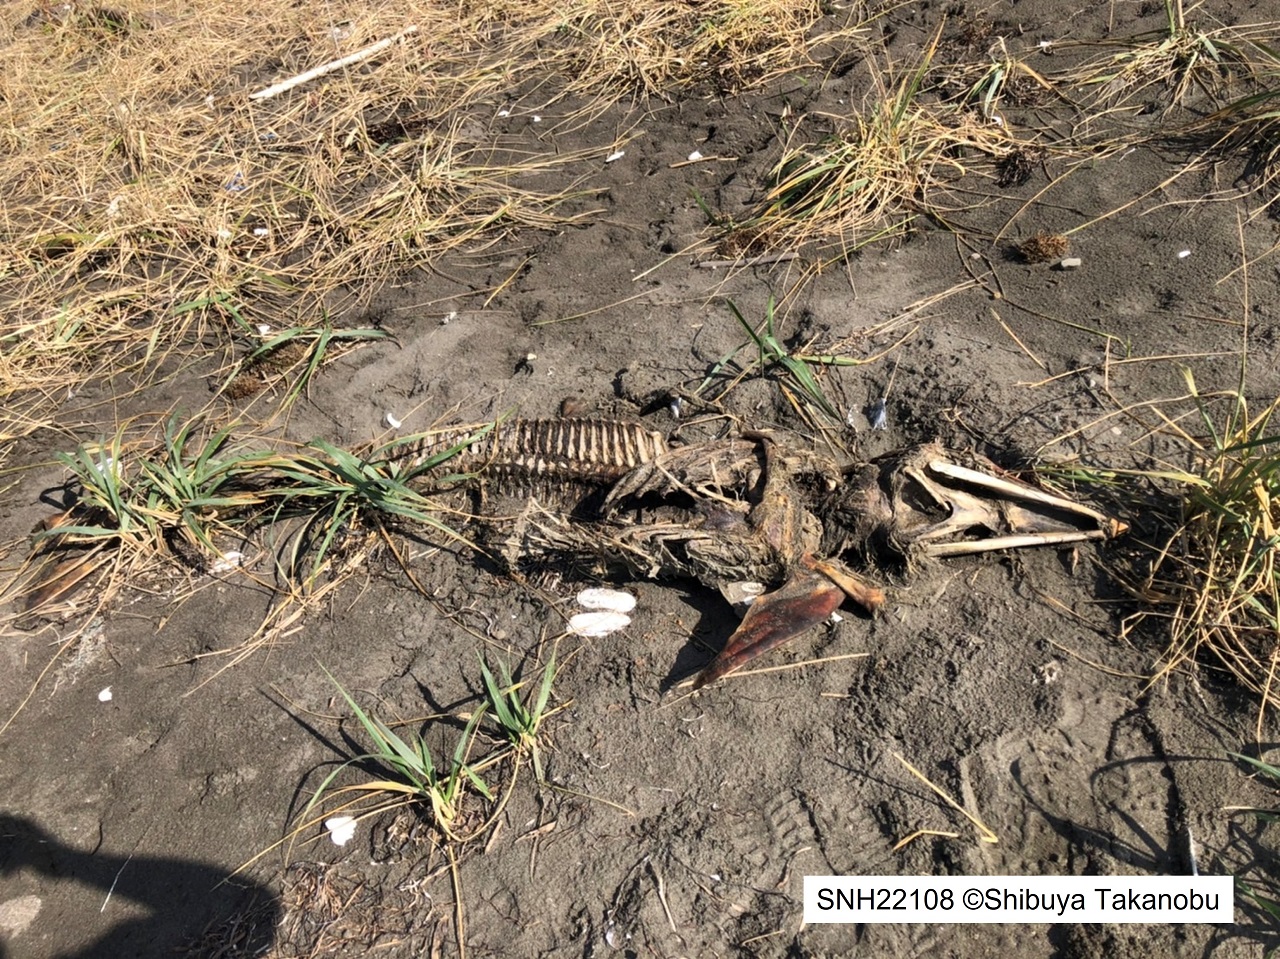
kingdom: Animalia
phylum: Chordata
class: Mammalia
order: Cetacea
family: Delphinidae
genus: Lagenorhynchus
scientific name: Lagenorhynchus obliquidens
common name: Pacific white-sided dolphin
